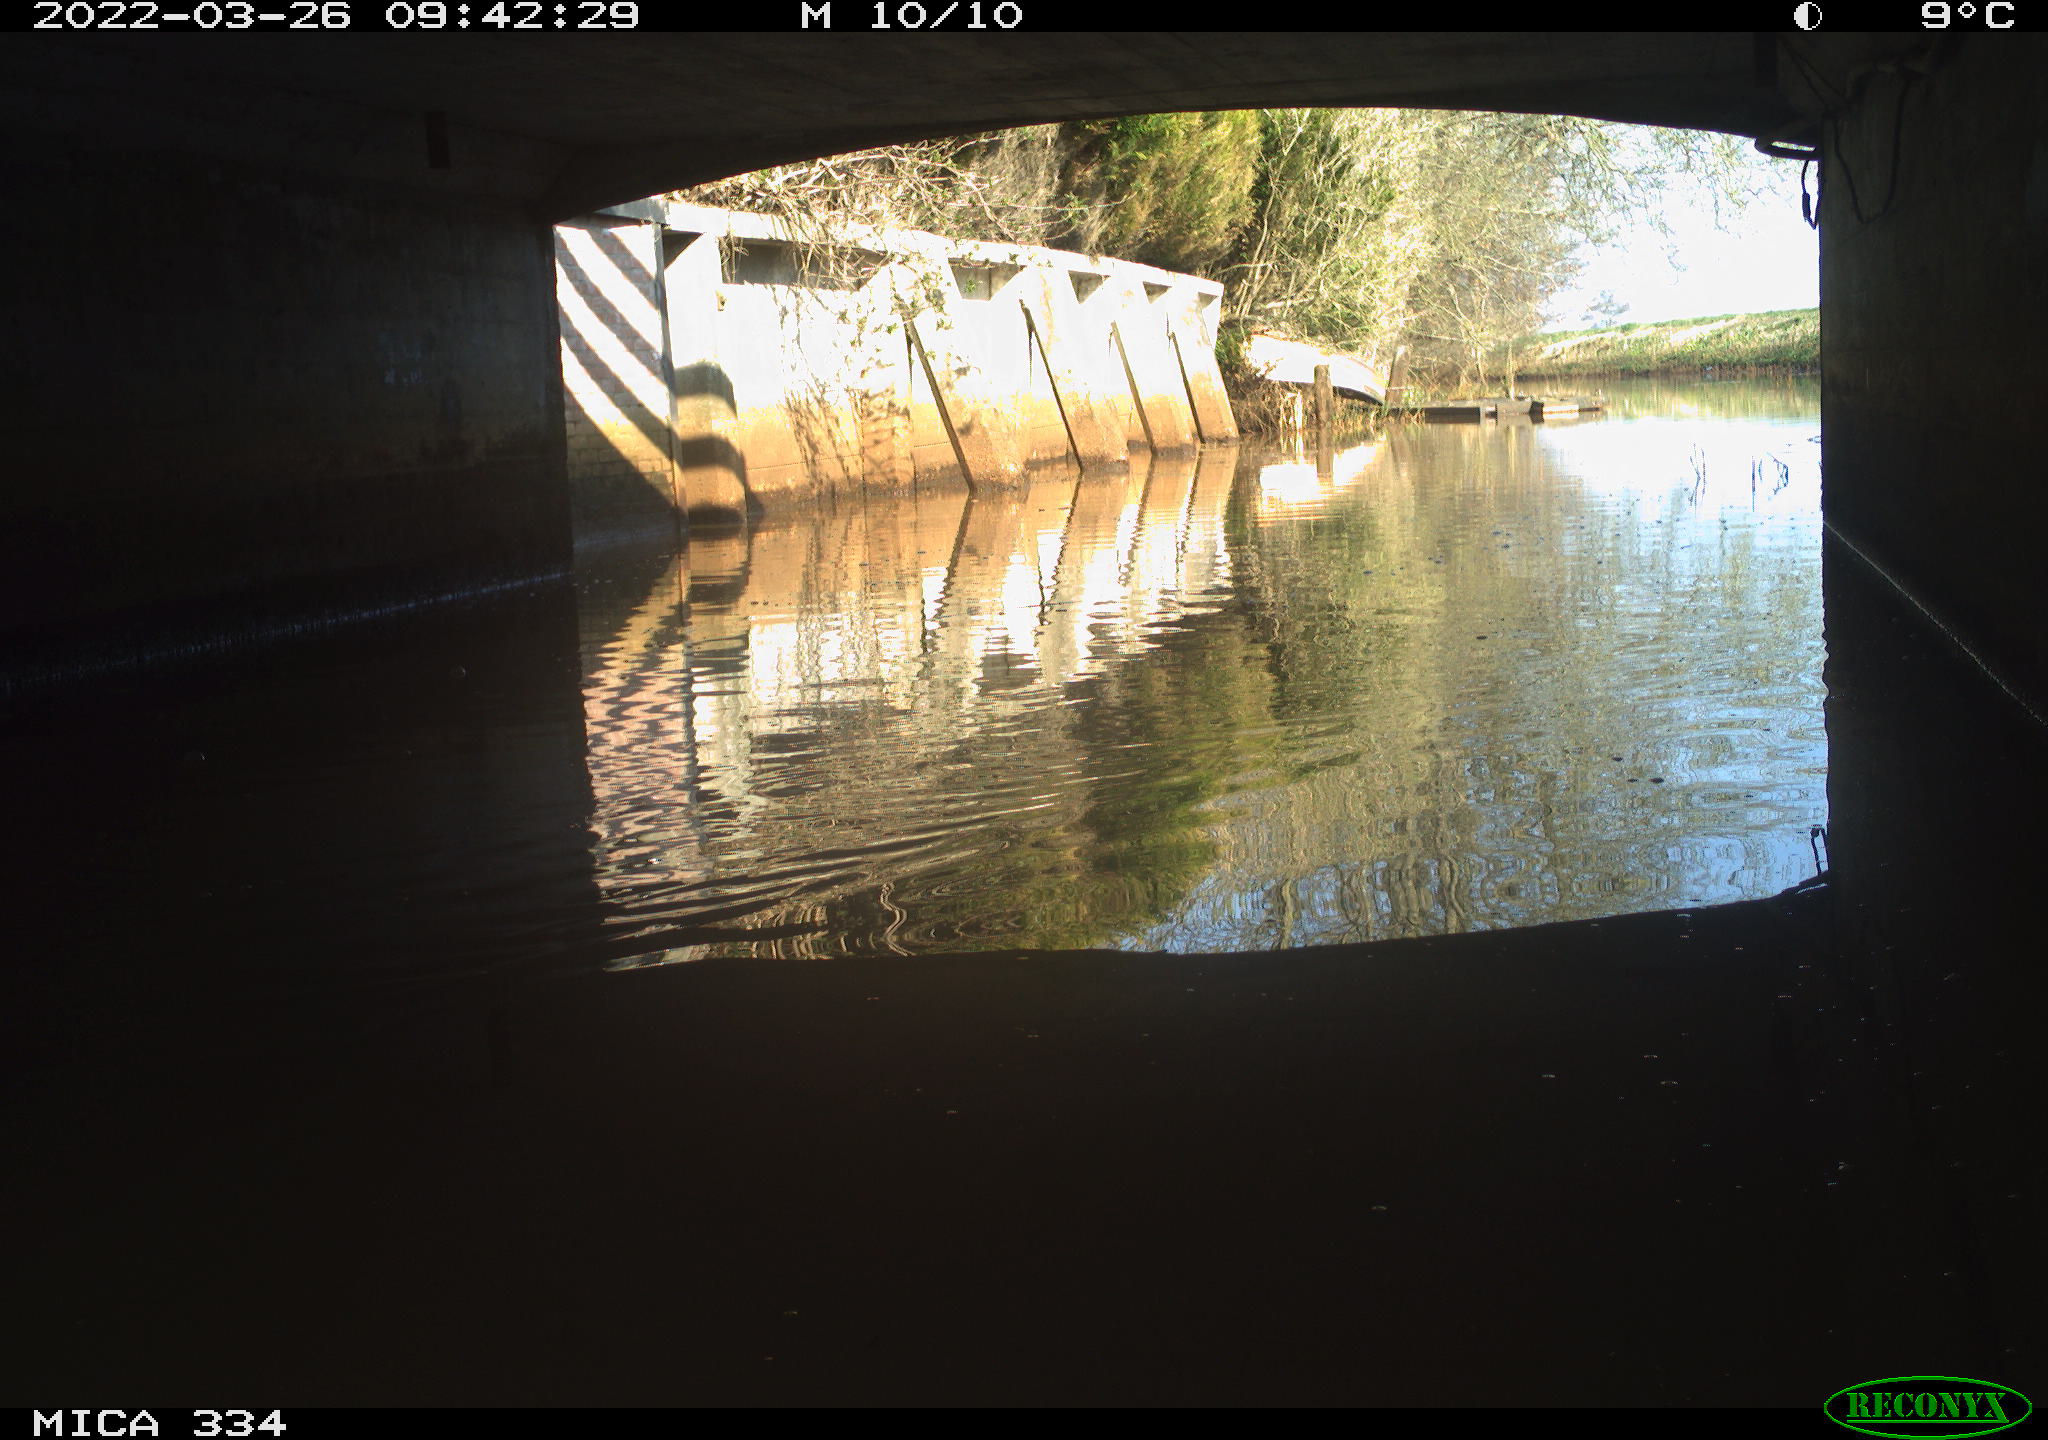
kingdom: Animalia
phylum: Chordata
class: Aves
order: Gruiformes
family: Rallidae
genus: Fulica
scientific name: Fulica atra
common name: Eurasian coot
